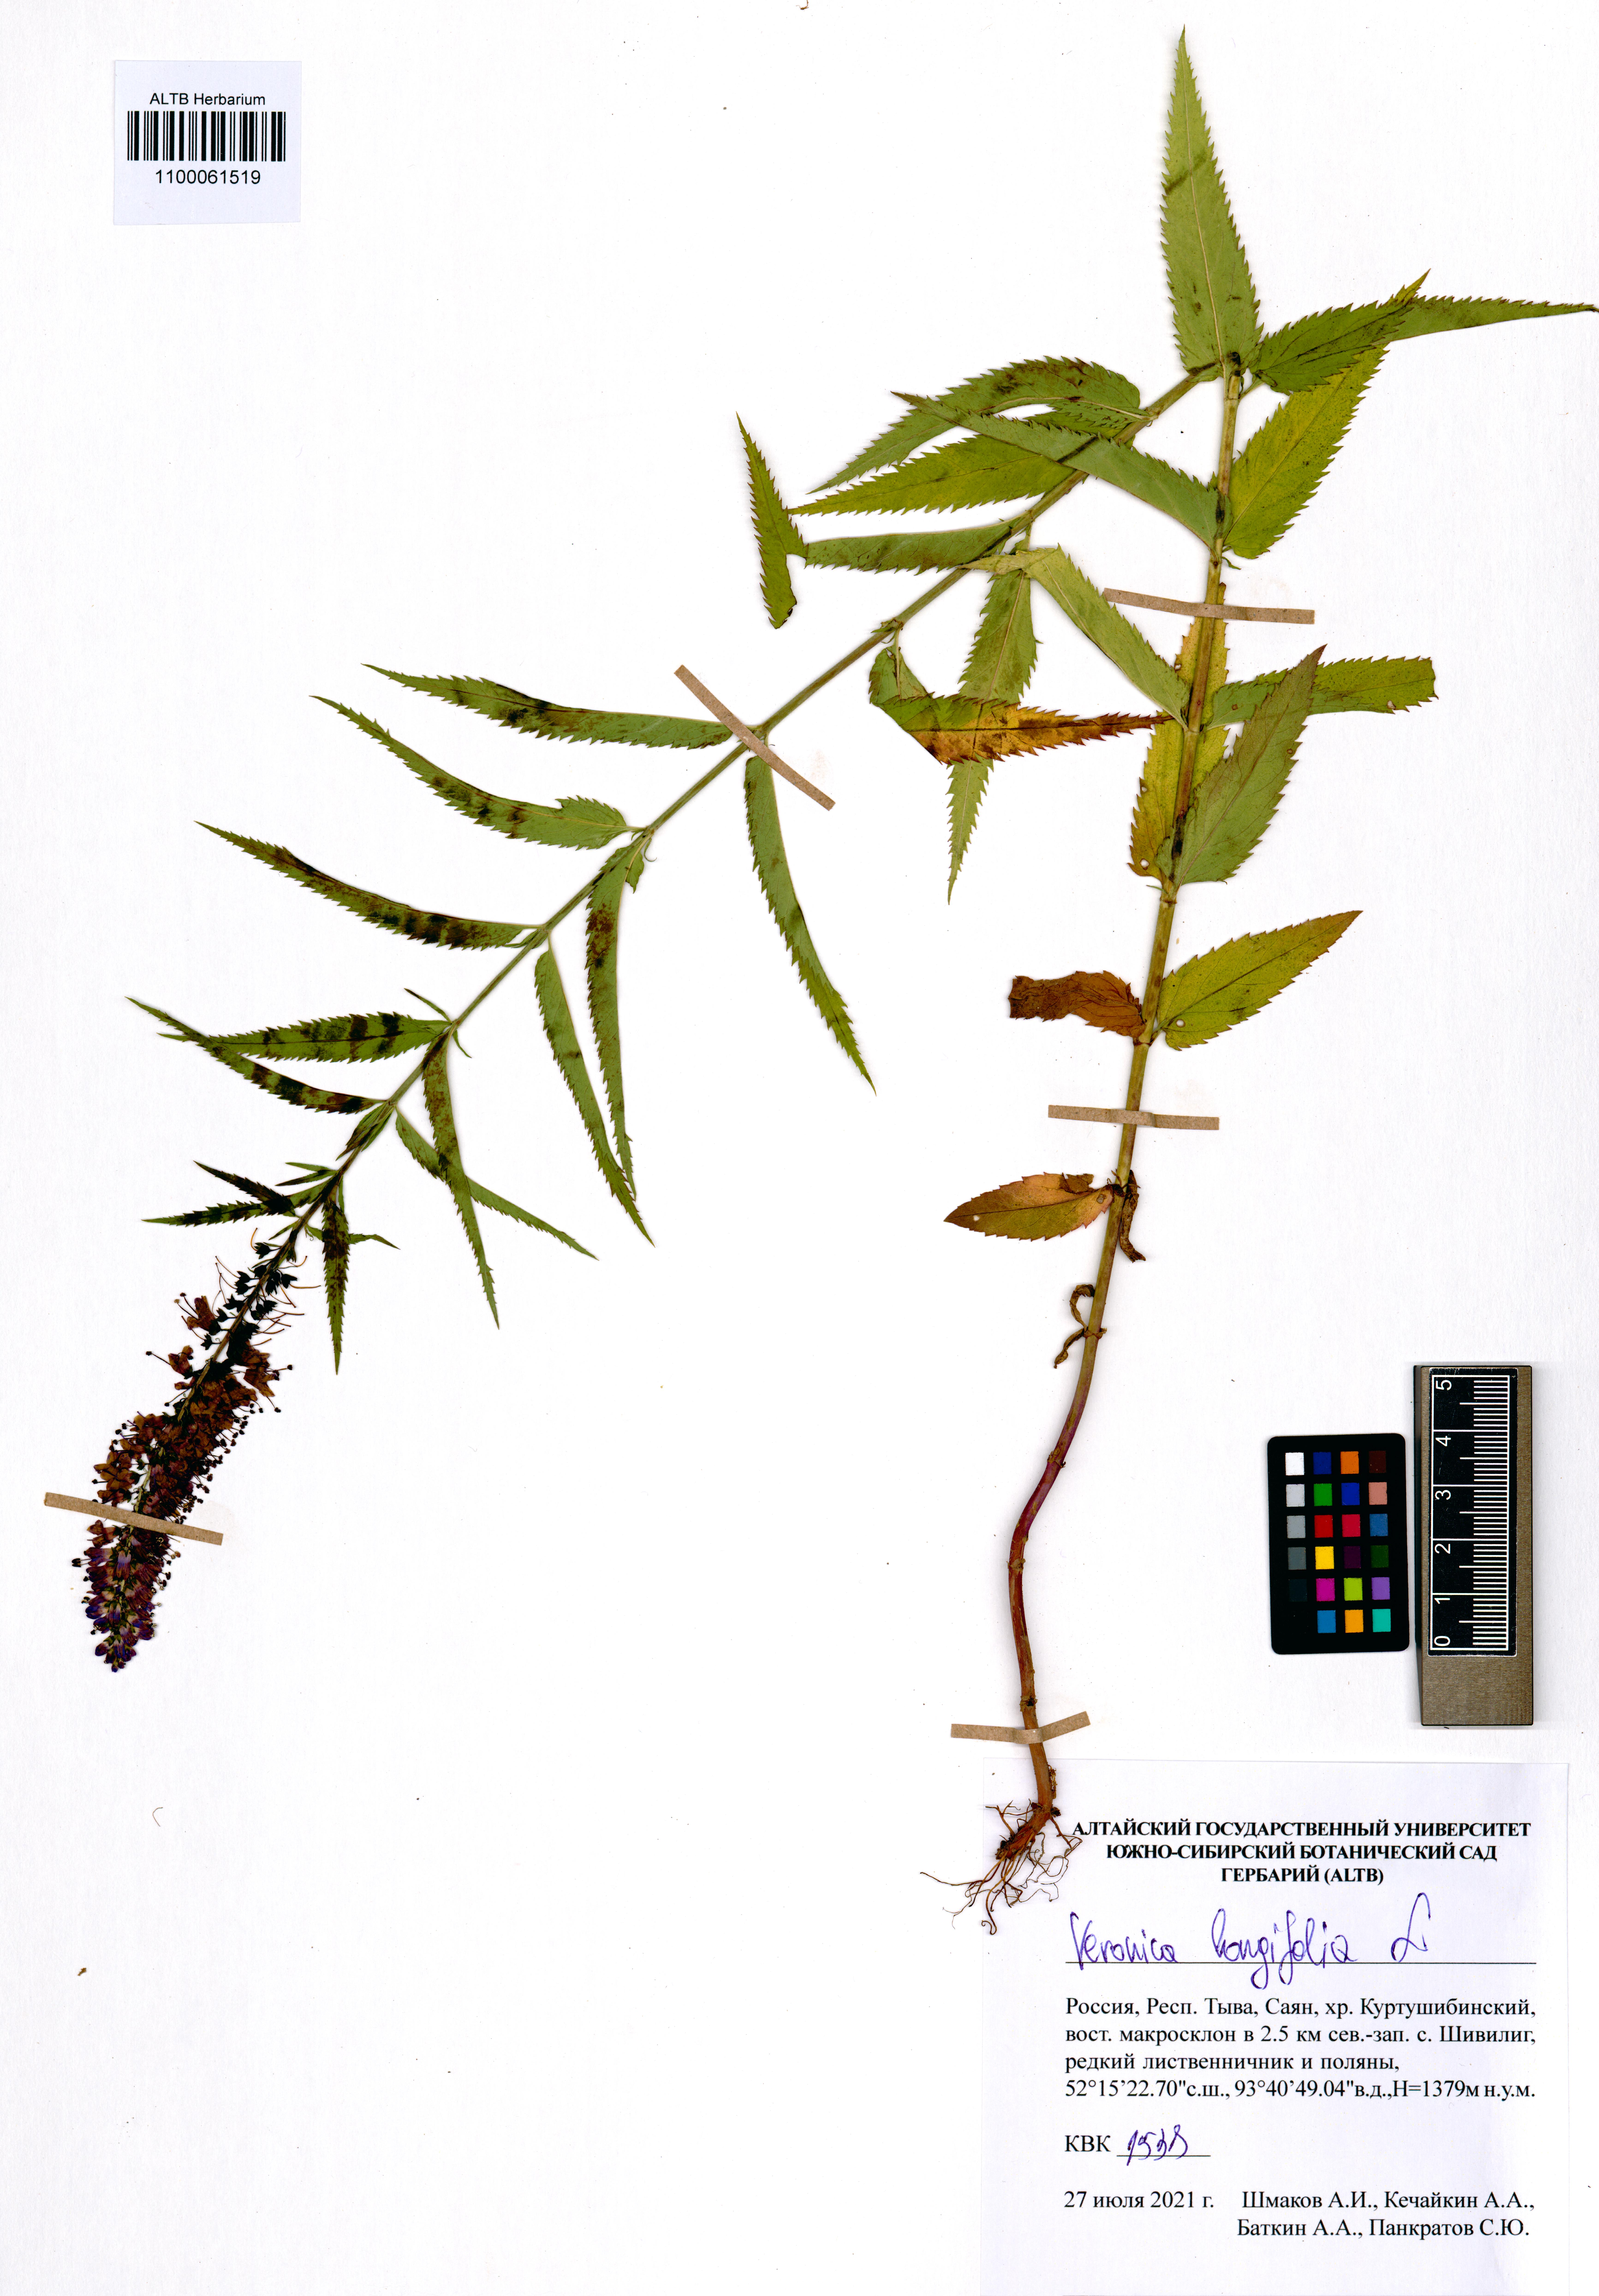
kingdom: Plantae
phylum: Tracheophyta
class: Magnoliopsida
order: Lamiales
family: Plantaginaceae
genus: Veronica
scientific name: Veronica longifolia
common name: Garden speedwell
